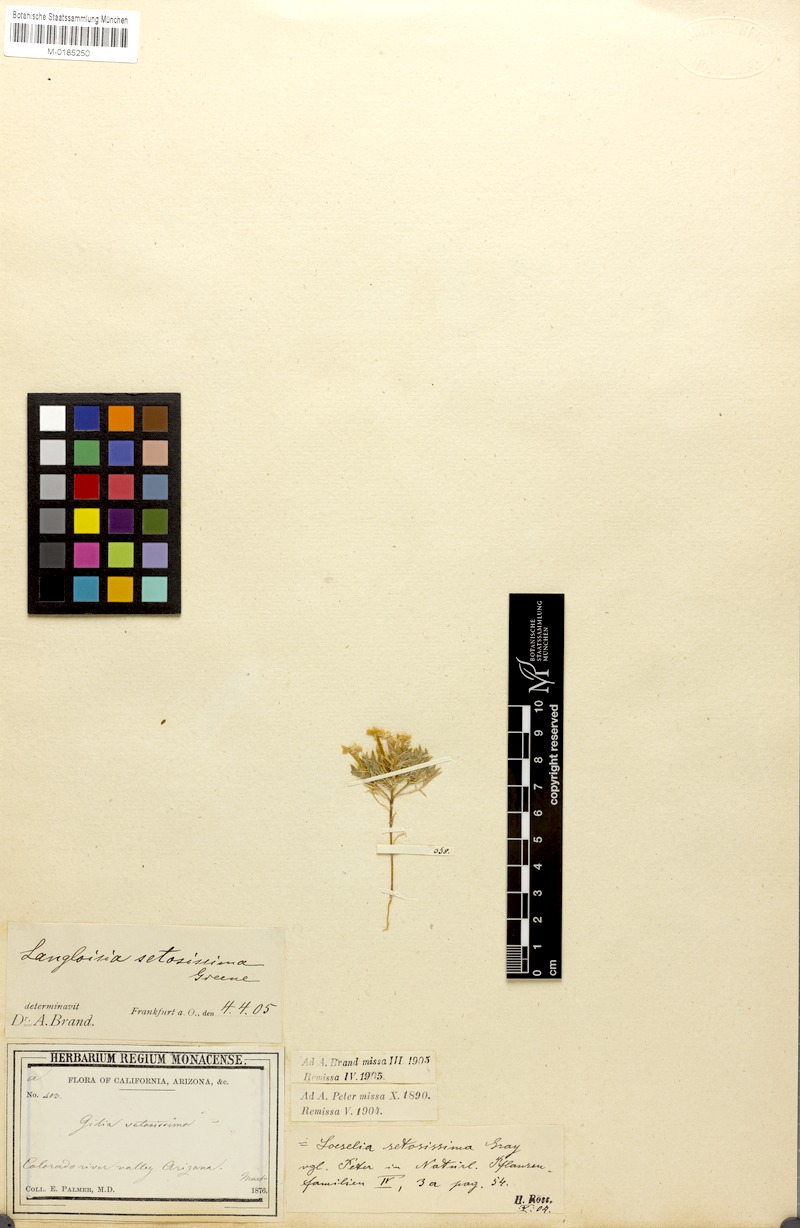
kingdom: Plantae
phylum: Tracheophyta
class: Magnoliopsida
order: Ericales
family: Polemoniaceae
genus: Langloisia
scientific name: Langloisia setosissima
